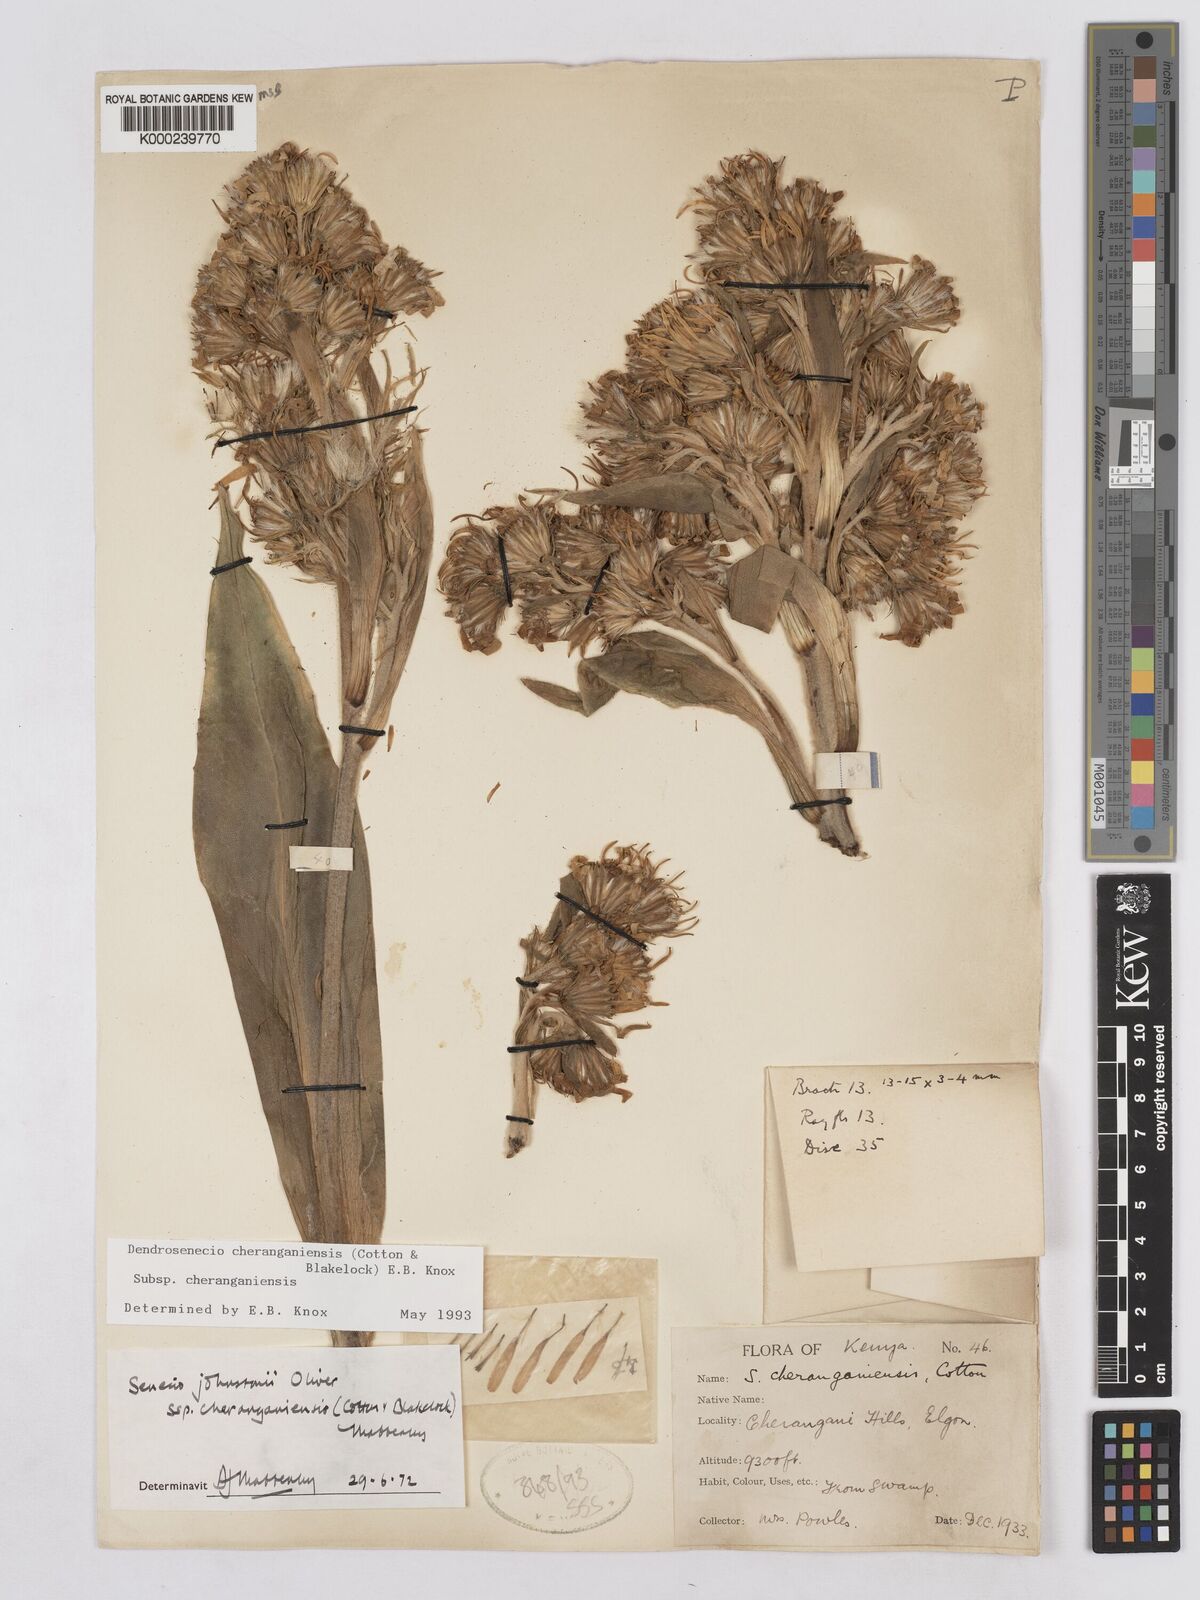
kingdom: Plantae
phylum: Tracheophyta
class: Magnoliopsida
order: Asterales
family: Asteraceae
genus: Dendrosenecio
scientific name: Dendrosenecio cheranganiensis
